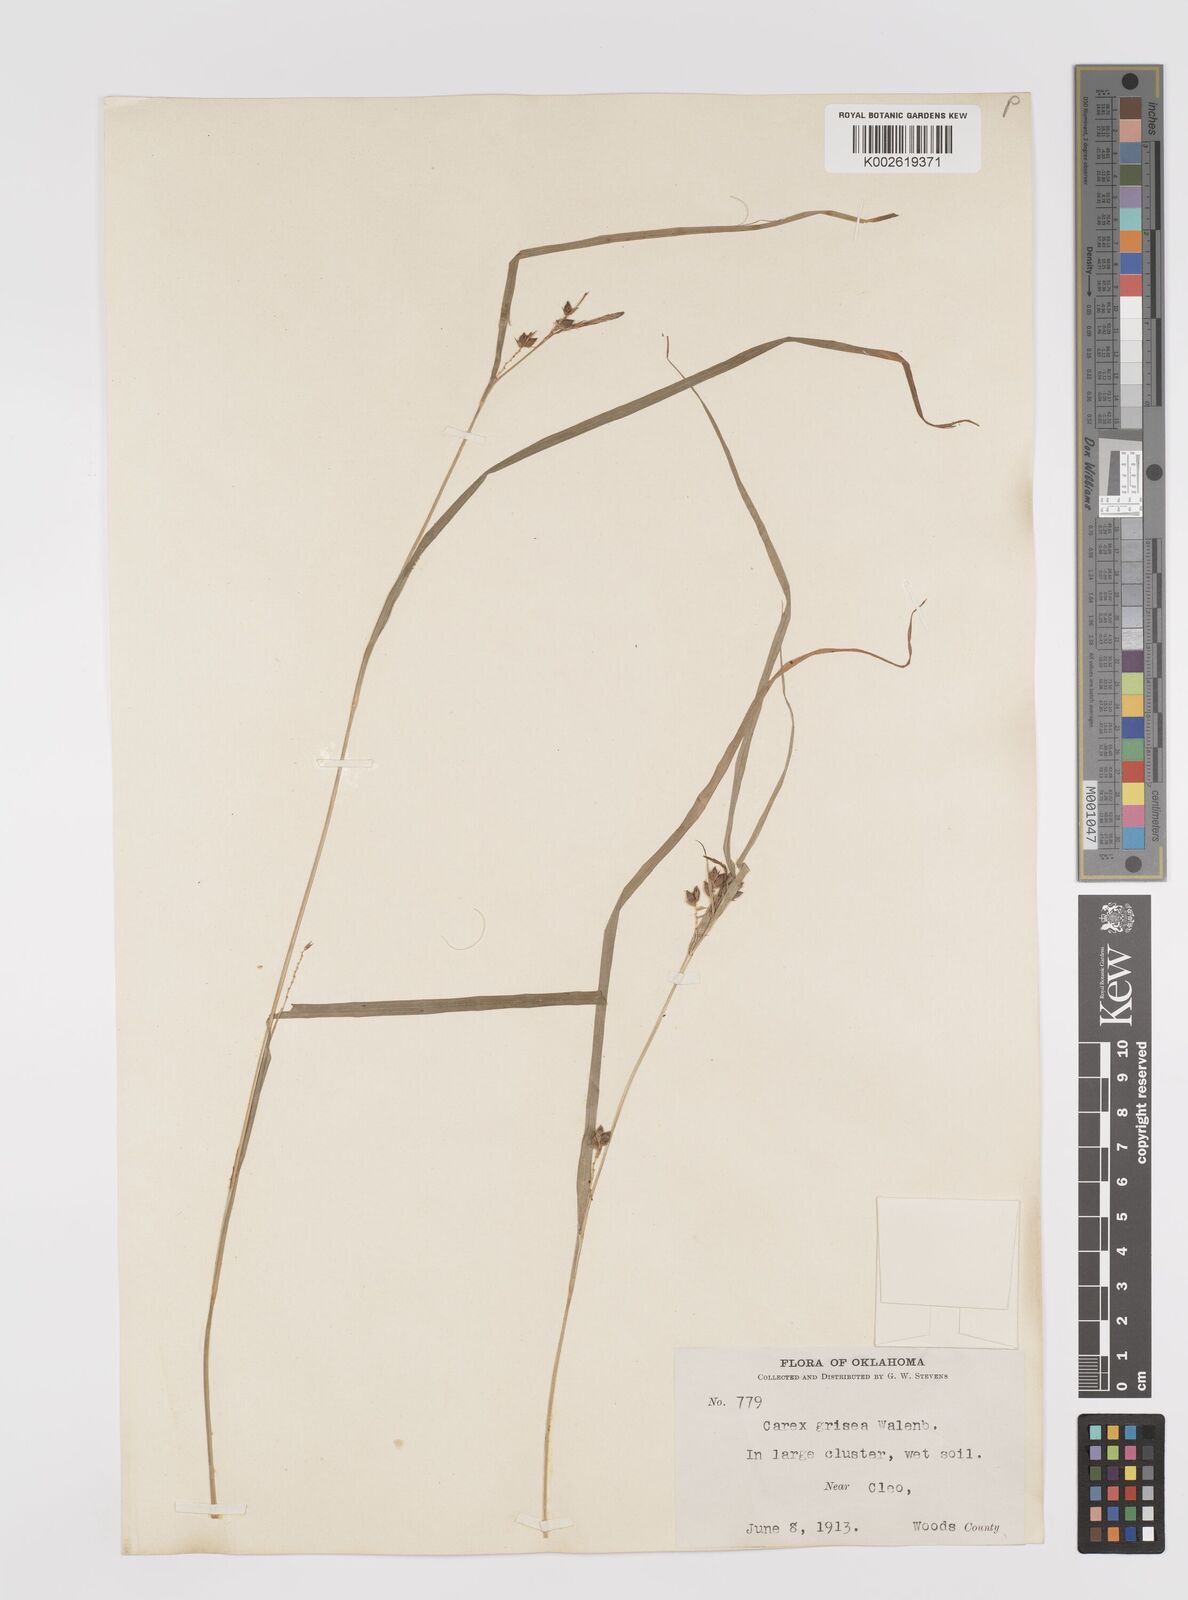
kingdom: Plantae
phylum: Tracheophyta
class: Liliopsida
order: Poales
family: Cyperaceae
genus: Carex
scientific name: Carex grisea
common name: Eastern narrow-leaved sedge
